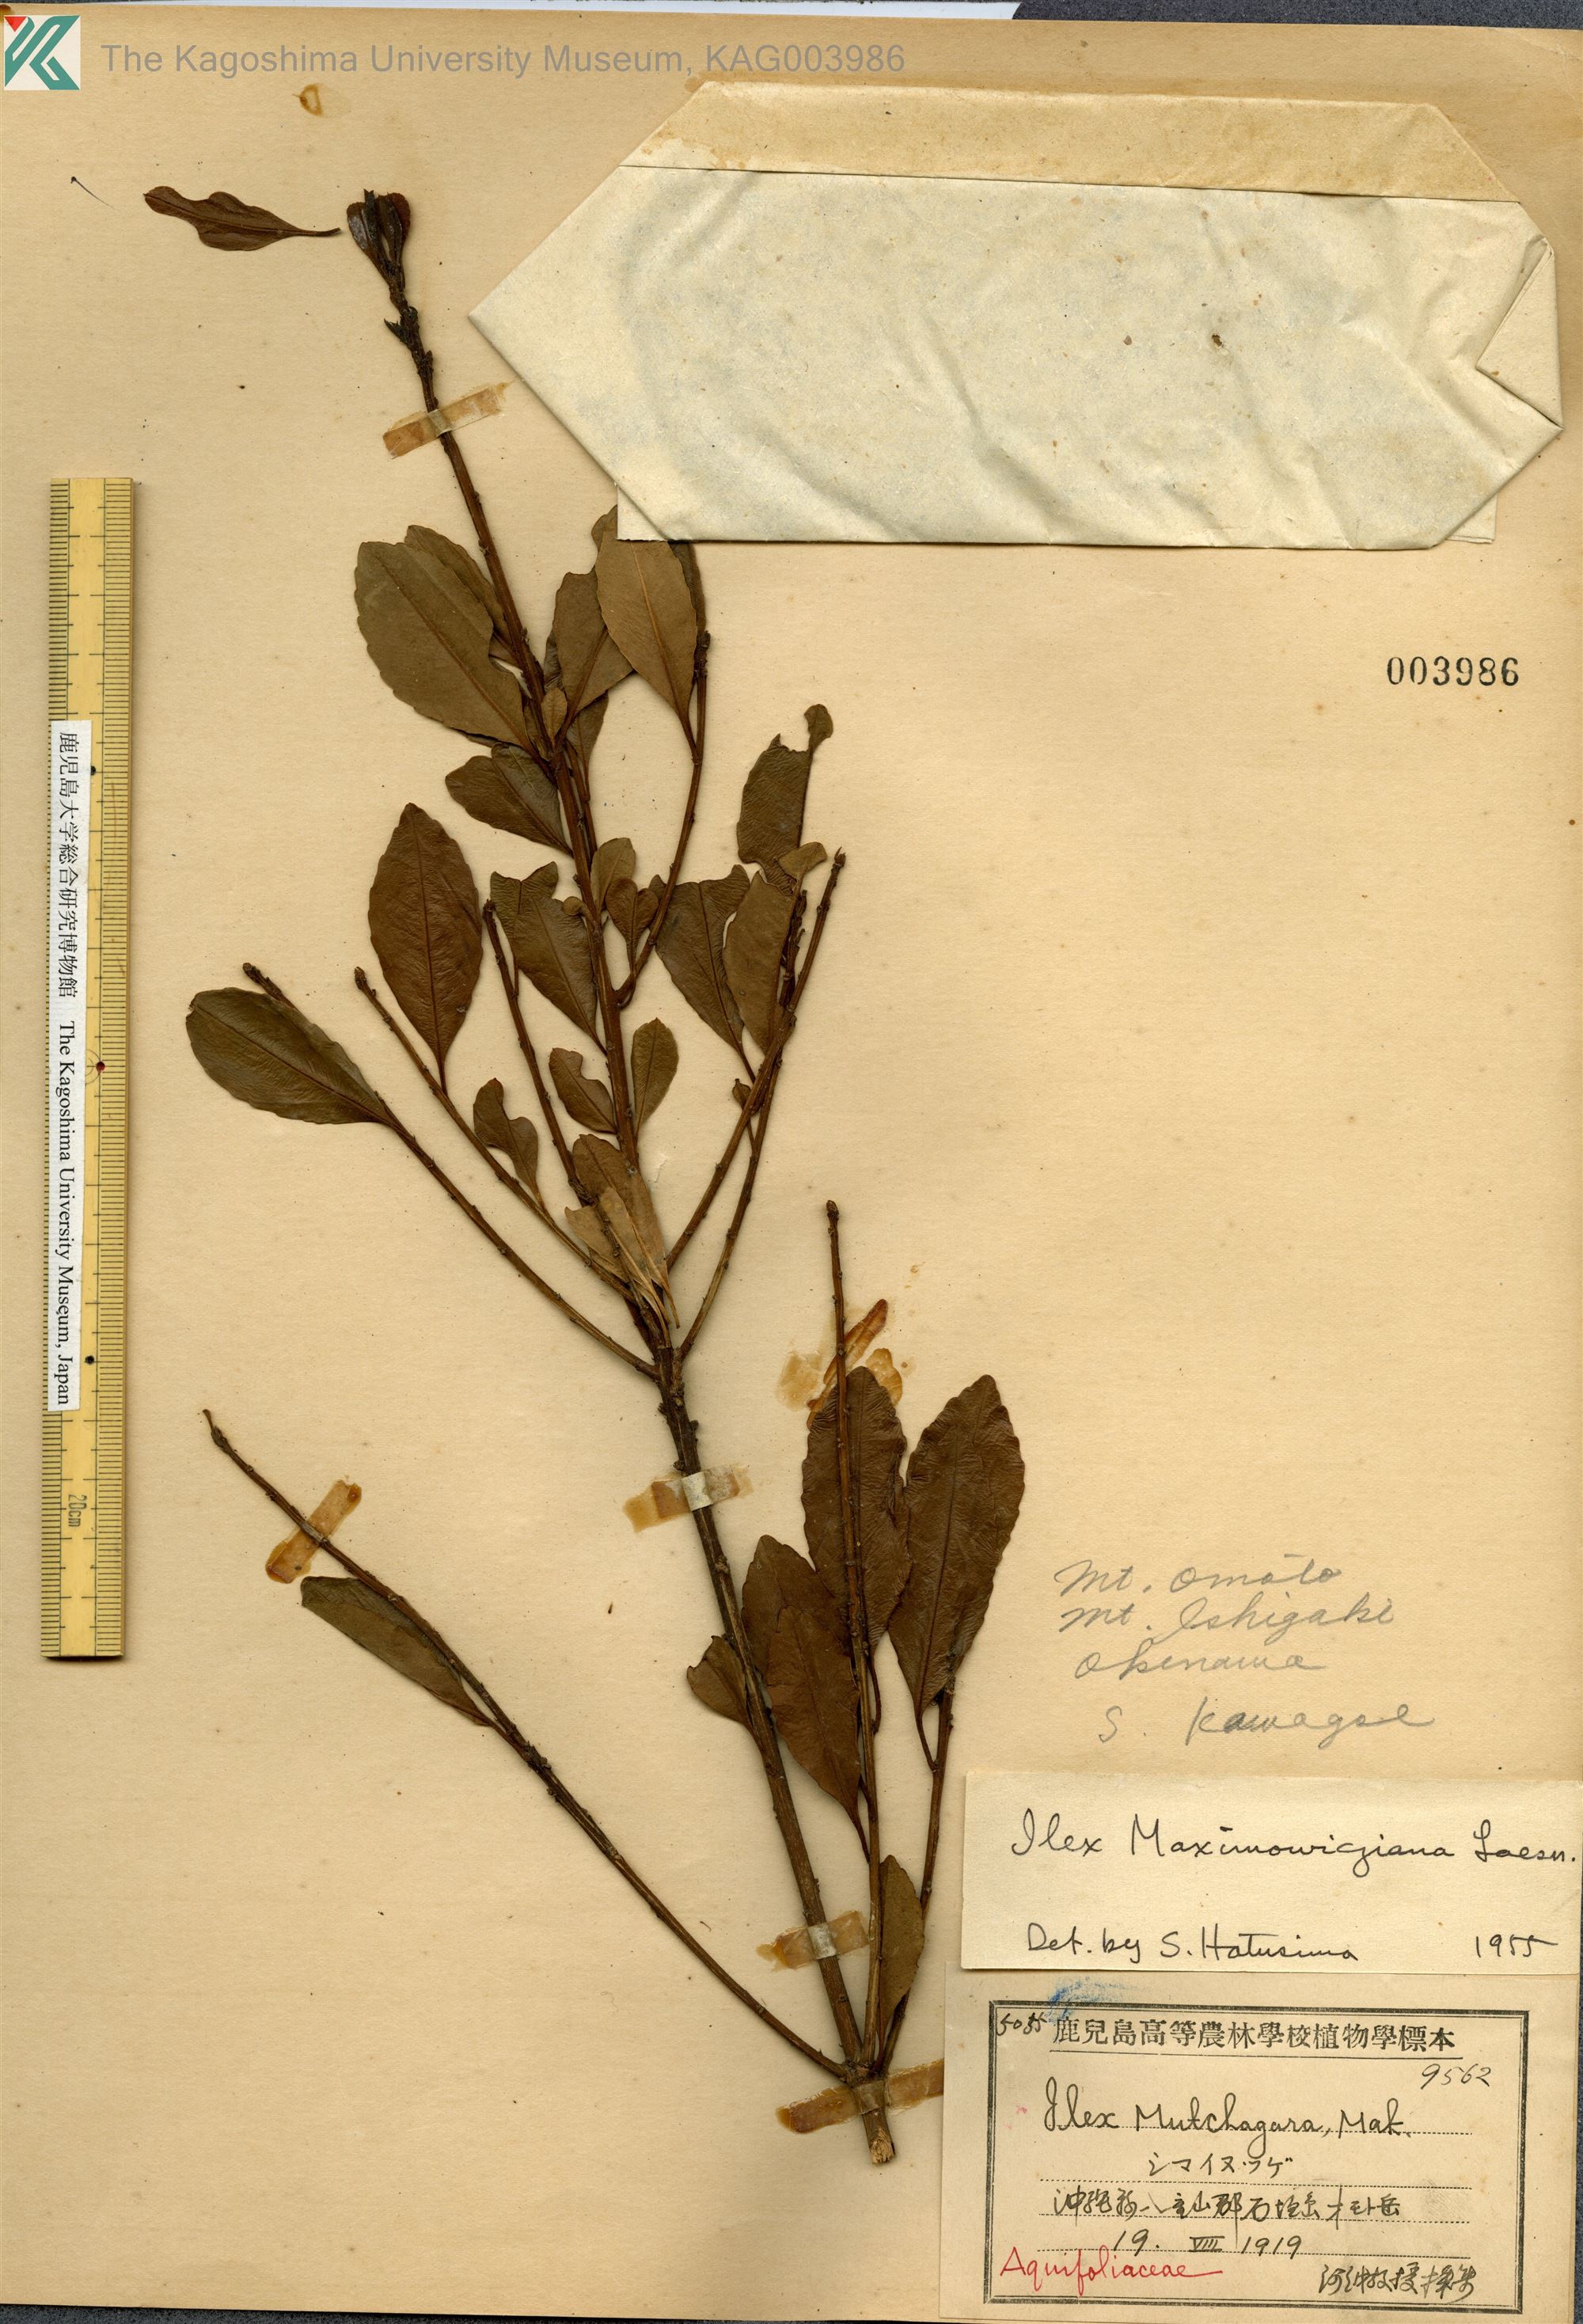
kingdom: Plantae
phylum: Tracheophyta
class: Magnoliopsida
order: Aquifoliales
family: Aquifoliaceae
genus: Ilex
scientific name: Ilex maximowicziana
